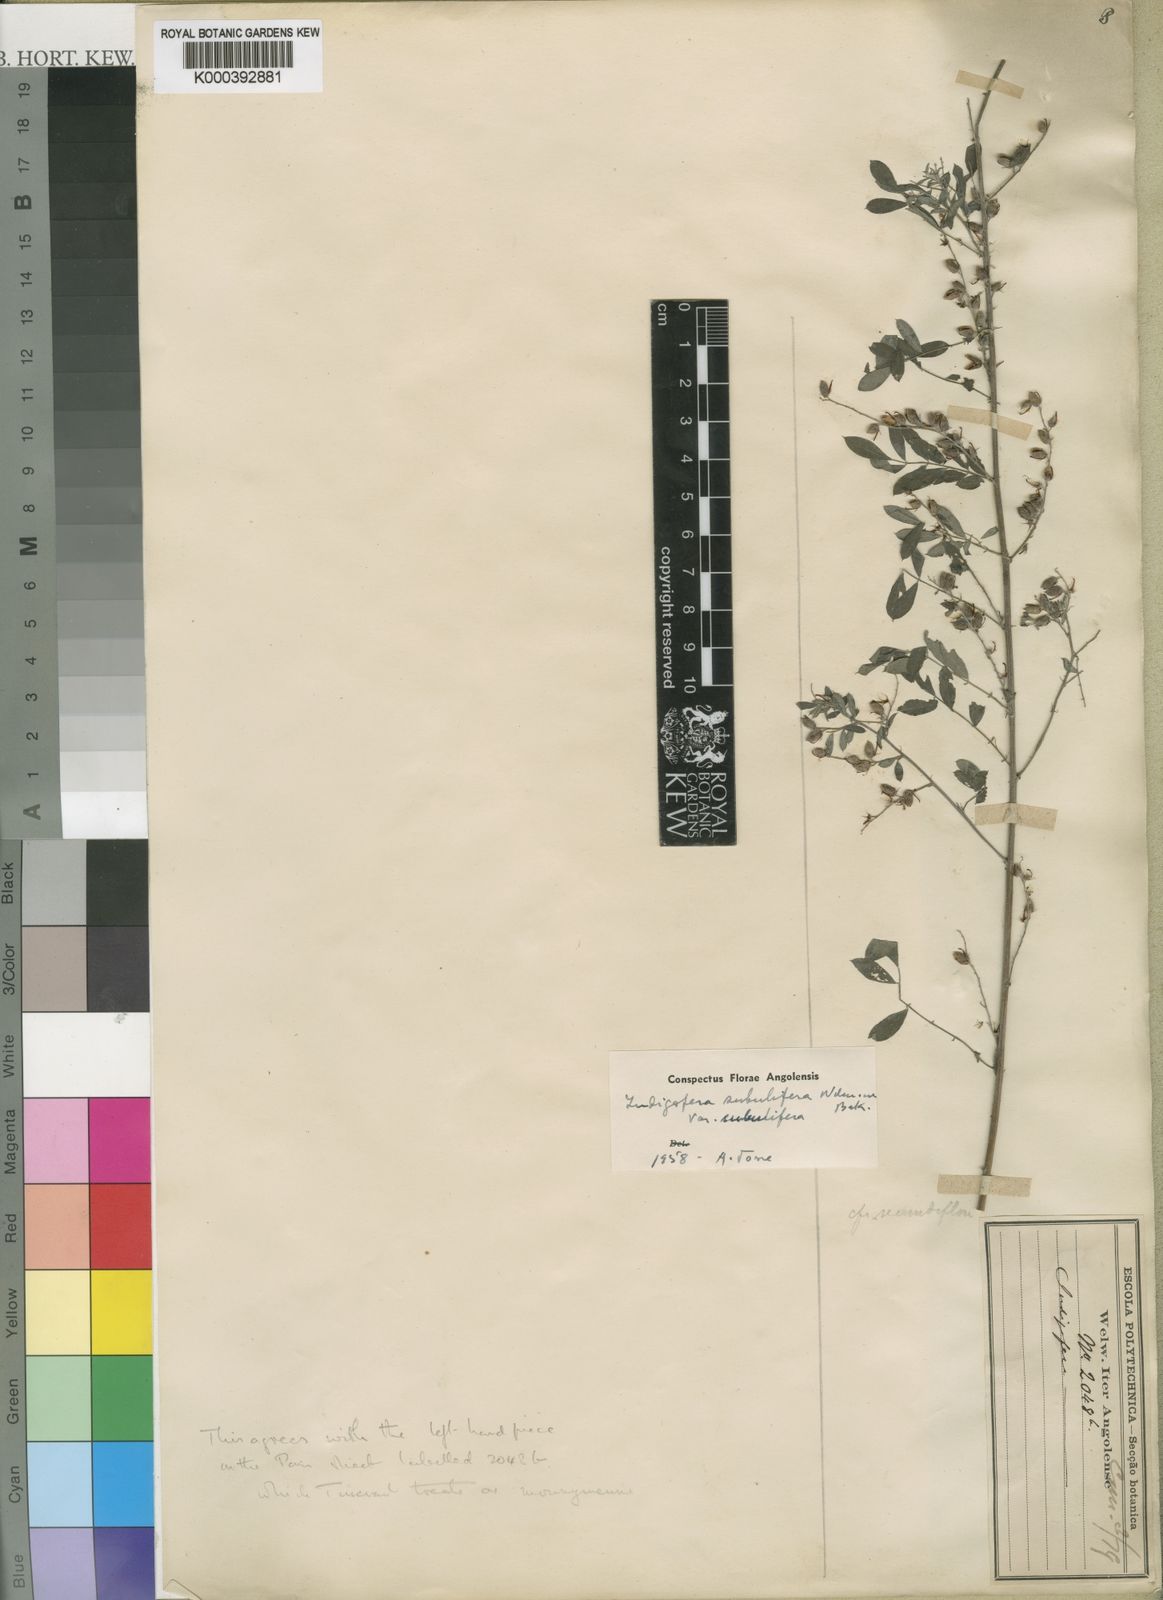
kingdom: Plantae
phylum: Tracheophyta
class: Magnoliopsida
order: Fabales
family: Fabaceae
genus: Indigofera
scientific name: Indigofera subulifera
